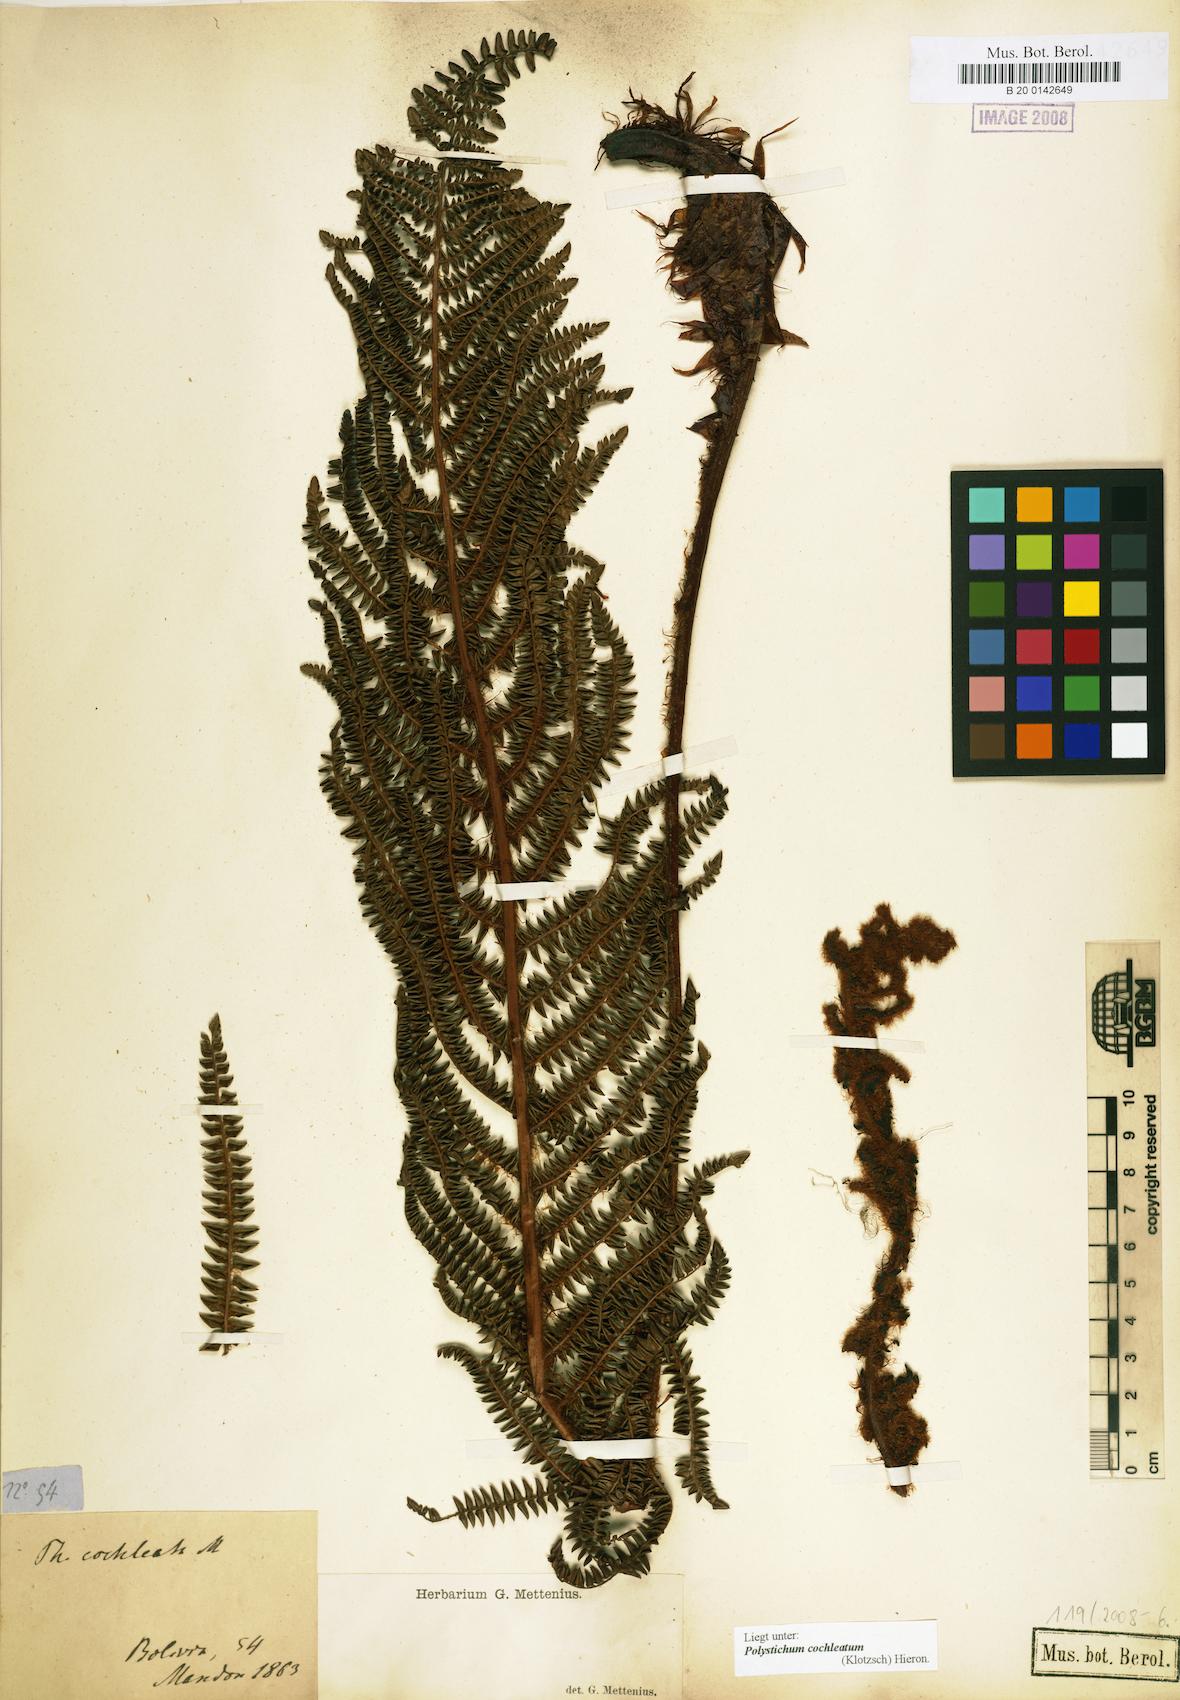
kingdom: Plantae
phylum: Tracheophyta
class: Polypodiopsida
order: Polypodiales
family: Dryopteridaceae
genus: Polystichum
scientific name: Polystichum cochleatum
